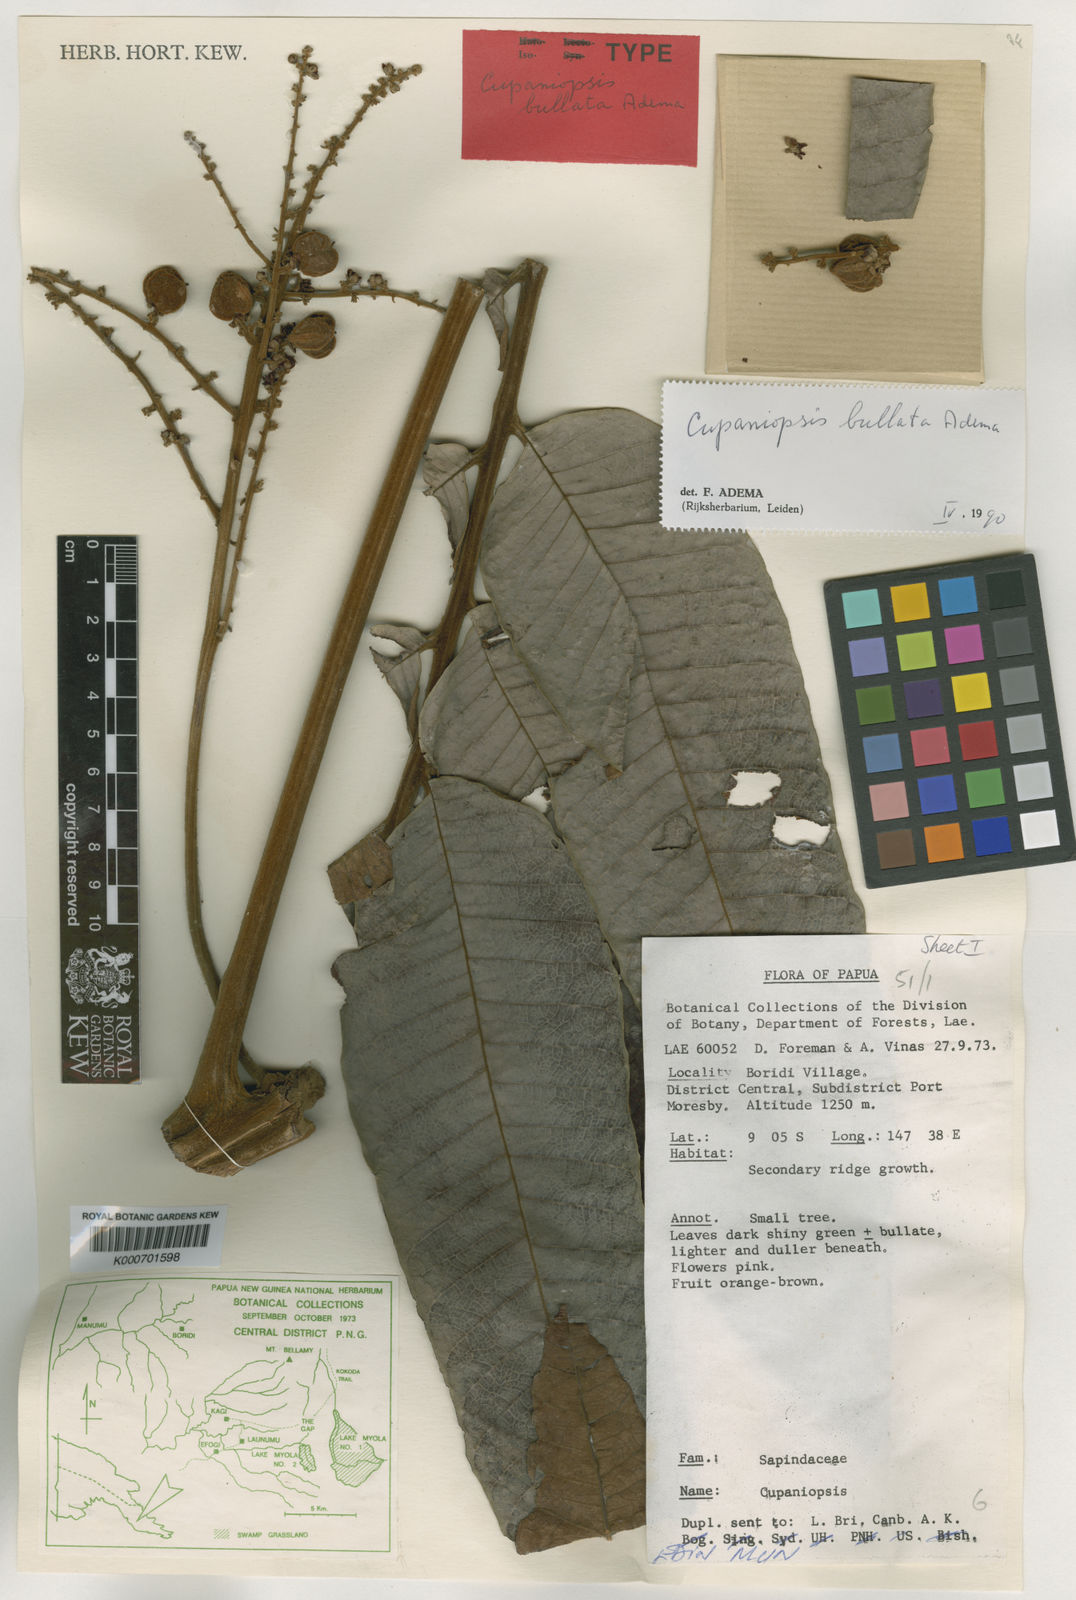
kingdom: Plantae
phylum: Tracheophyta
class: Magnoliopsida
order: Sapindales
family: Sapindaceae
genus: Cupaniopsis
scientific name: Cupaniopsis bullata
